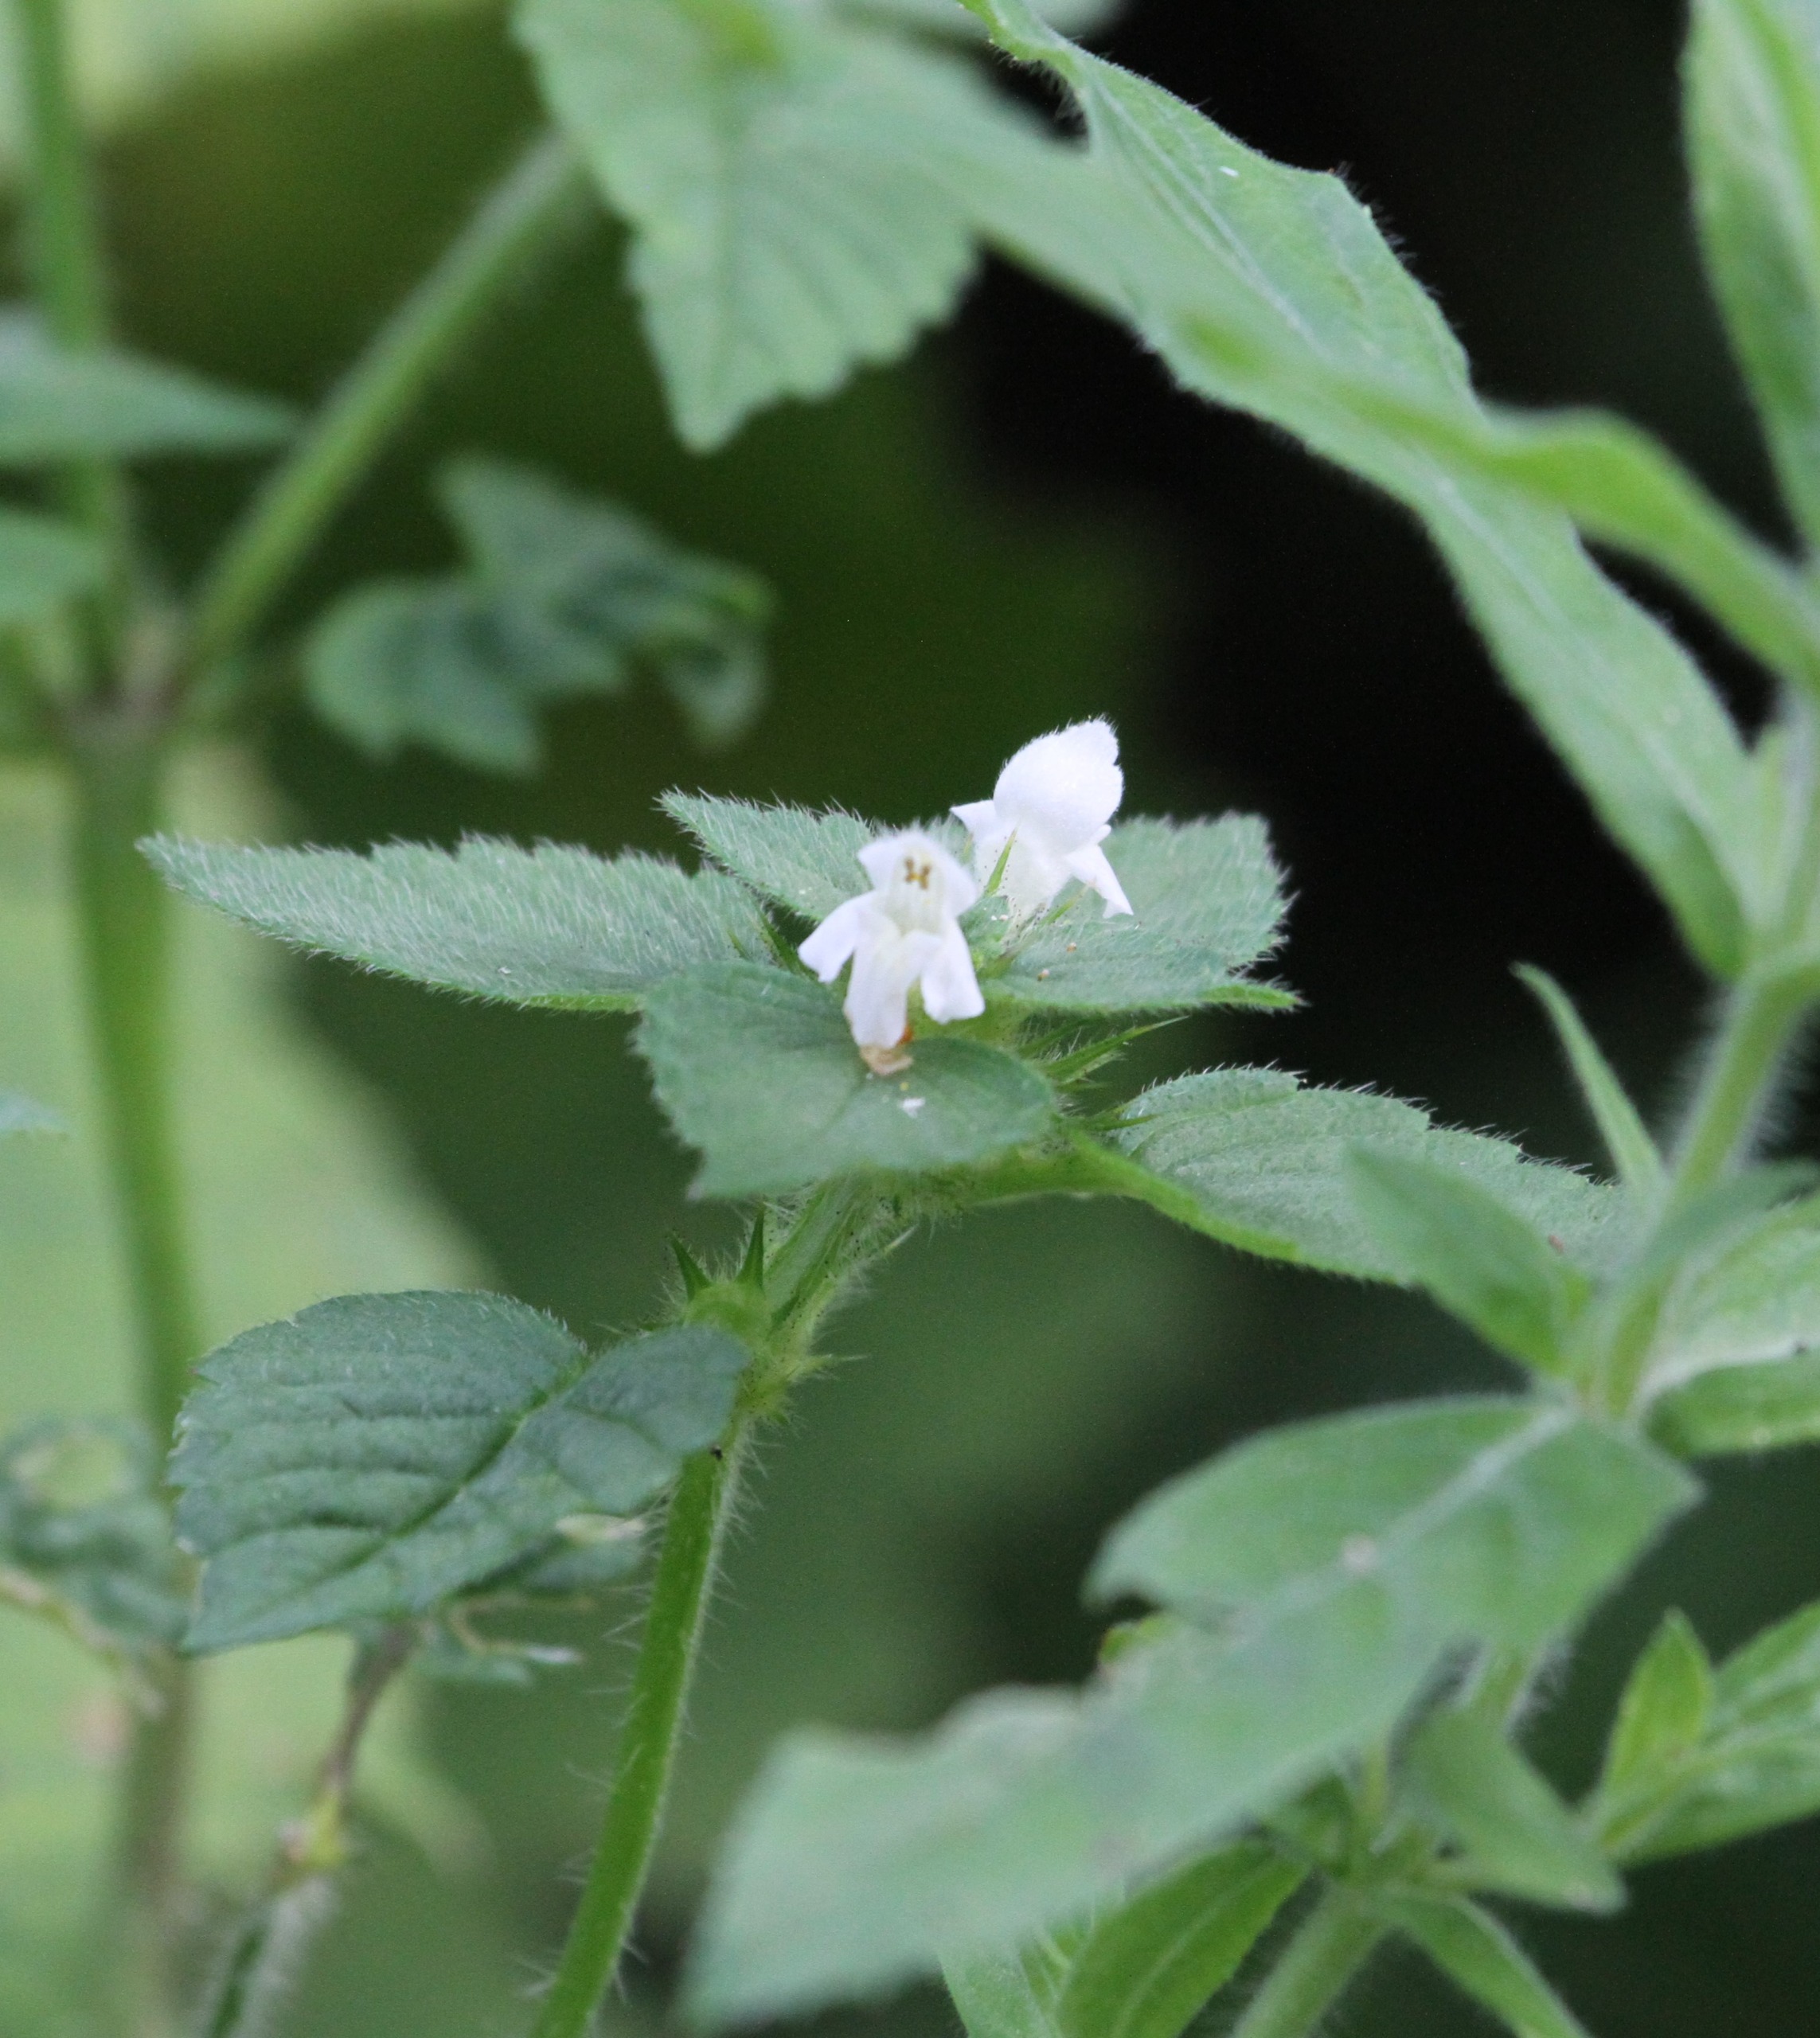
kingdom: Plantae
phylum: Tracheophyta
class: Magnoliopsida
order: Lamiales
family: Lamiaceae
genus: Galeopsis
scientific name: Galeopsis tetrahit
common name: Almindelig hanekro
